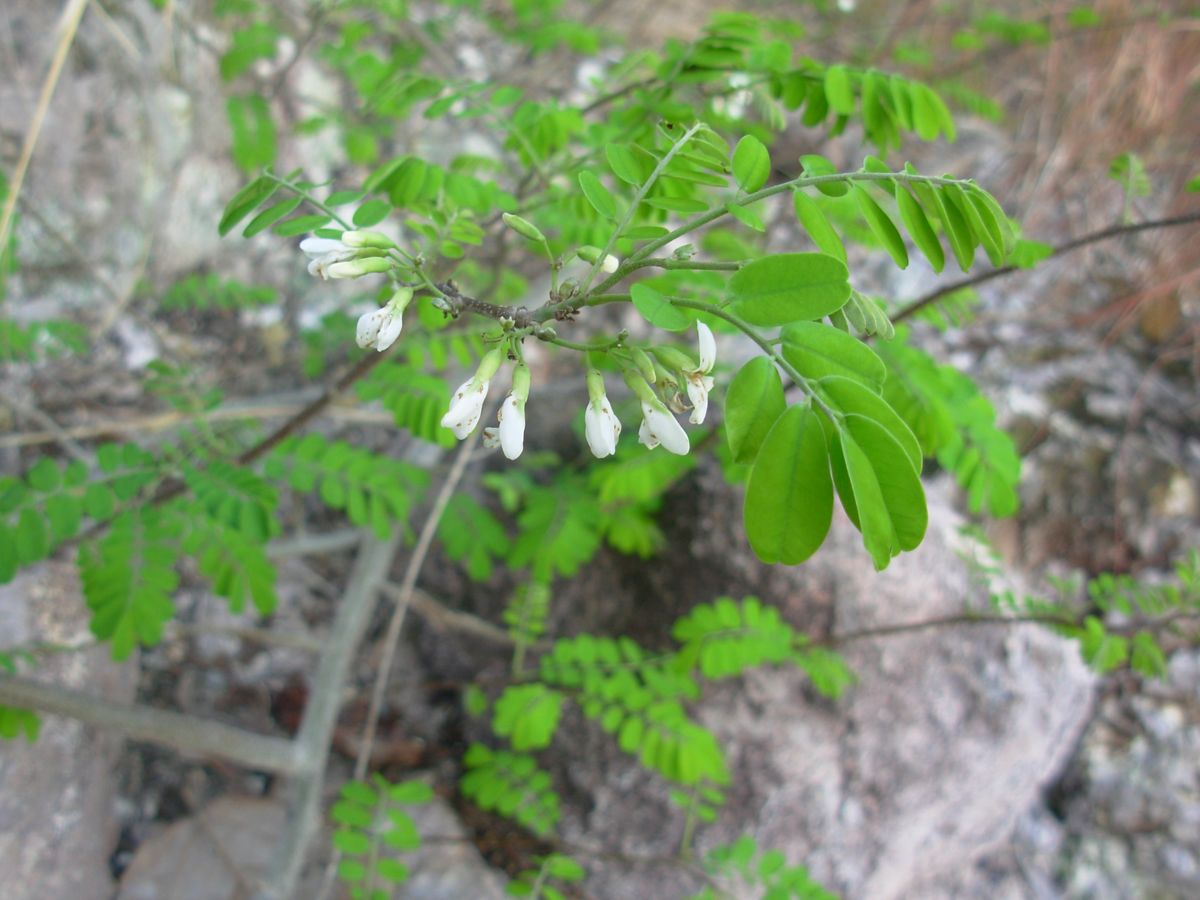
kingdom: Plantae
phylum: Tracheophyta
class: Magnoliopsida
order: Fabales
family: Fabaceae
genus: Dalbergia
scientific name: Dalbergia chontalensis
